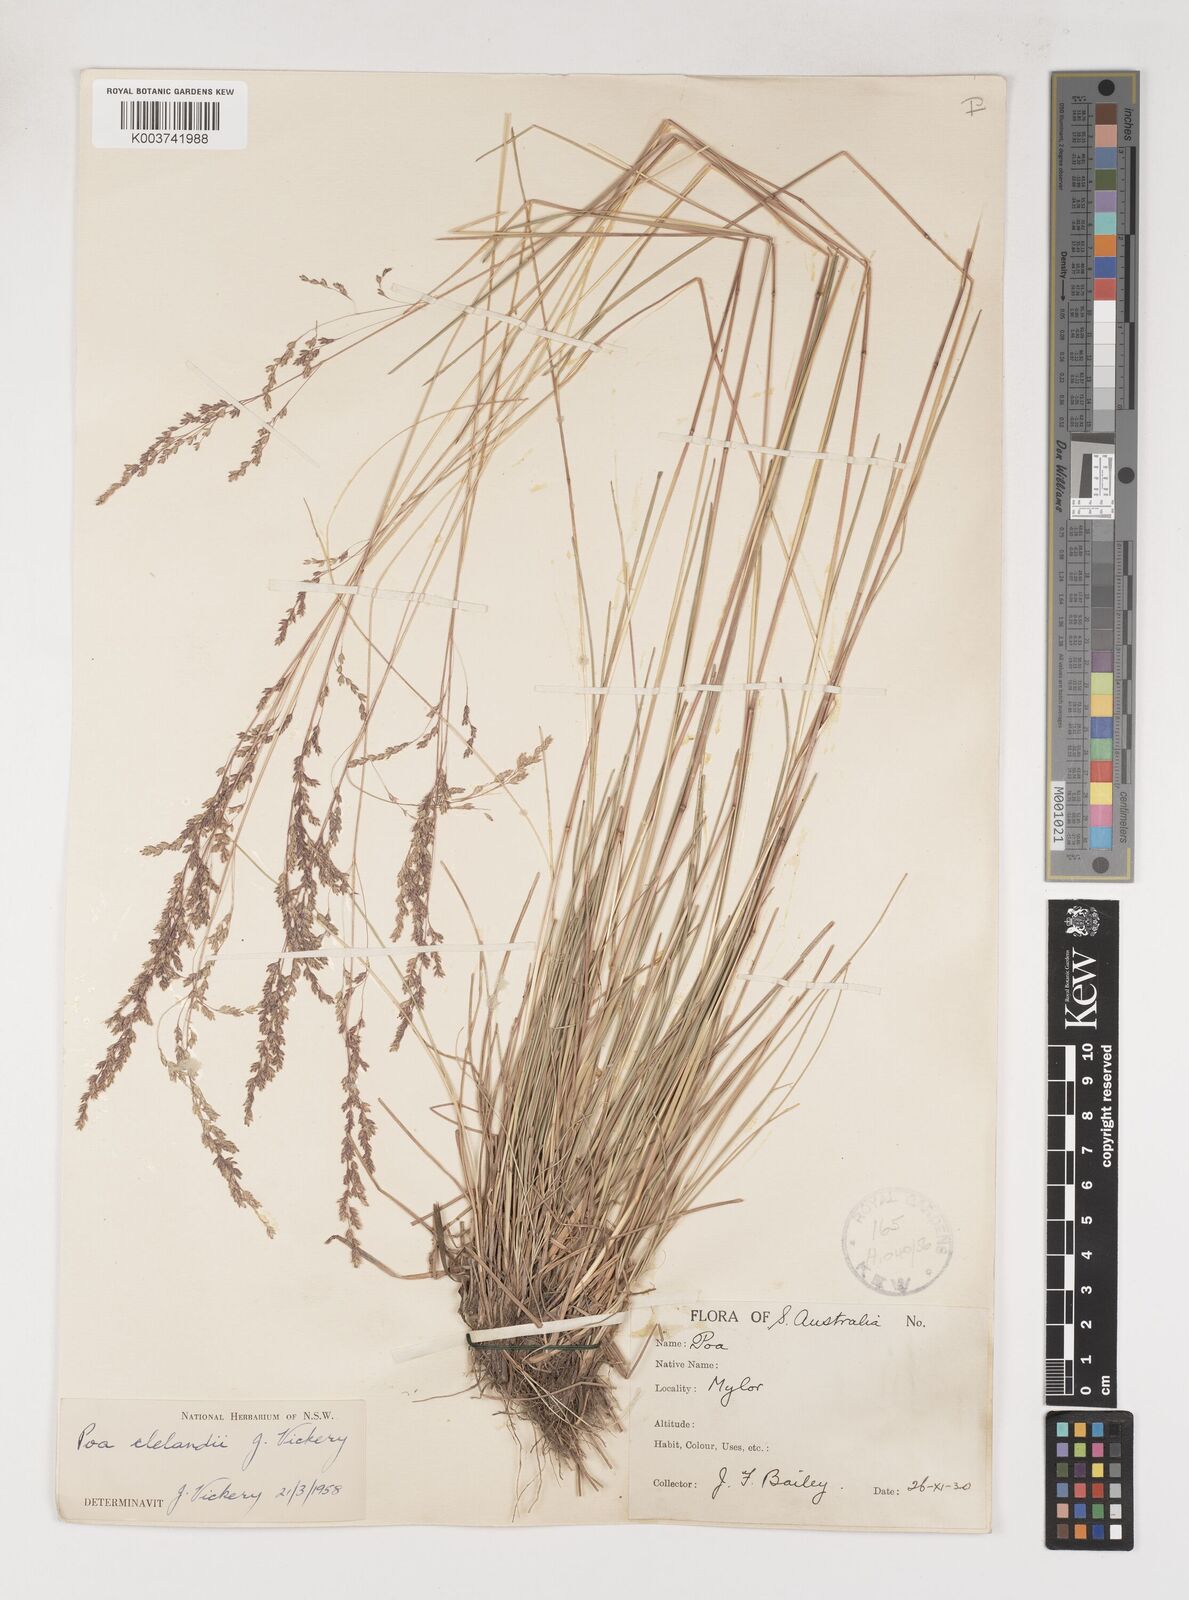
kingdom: Plantae
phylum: Tracheophyta
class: Liliopsida
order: Poales
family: Poaceae
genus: Poa
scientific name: Poa clelandii
